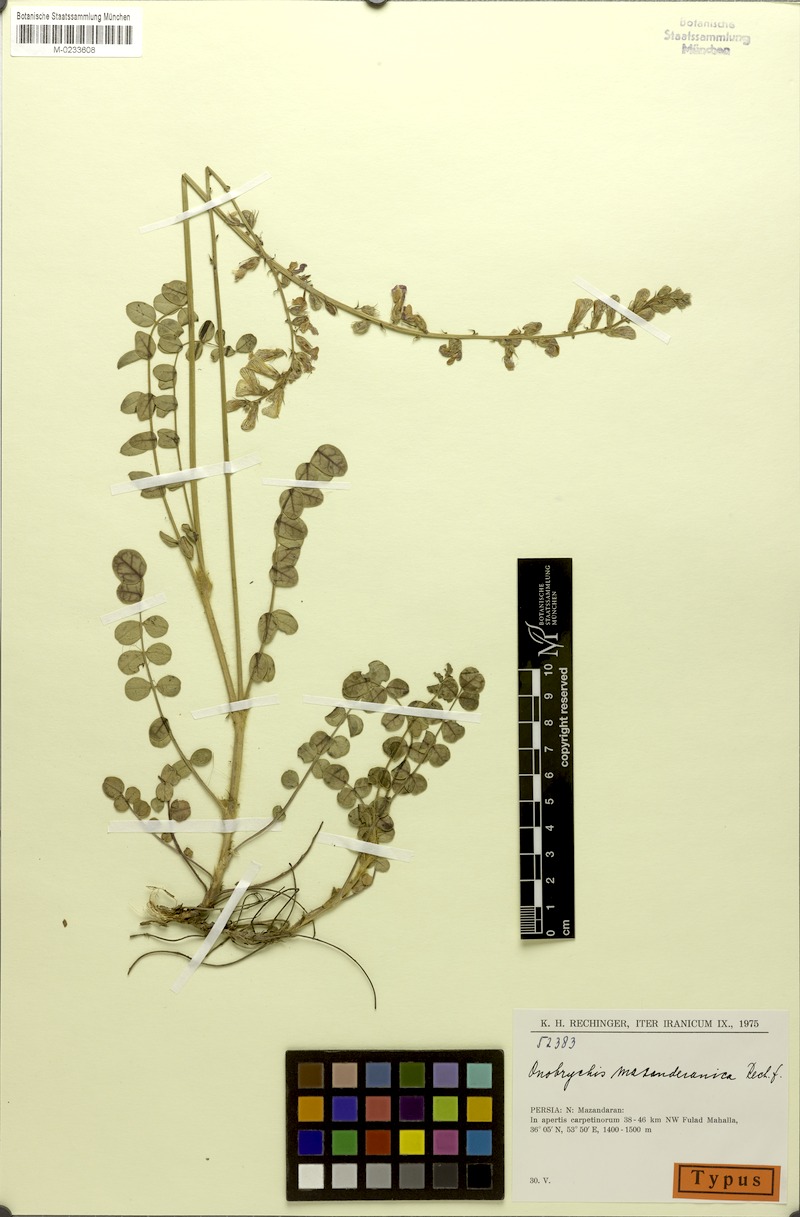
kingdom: Plantae
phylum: Tracheophyta
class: Magnoliopsida
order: Fabales
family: Fabaceae
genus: Onobrychis
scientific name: Onobrychis mazanderanica
